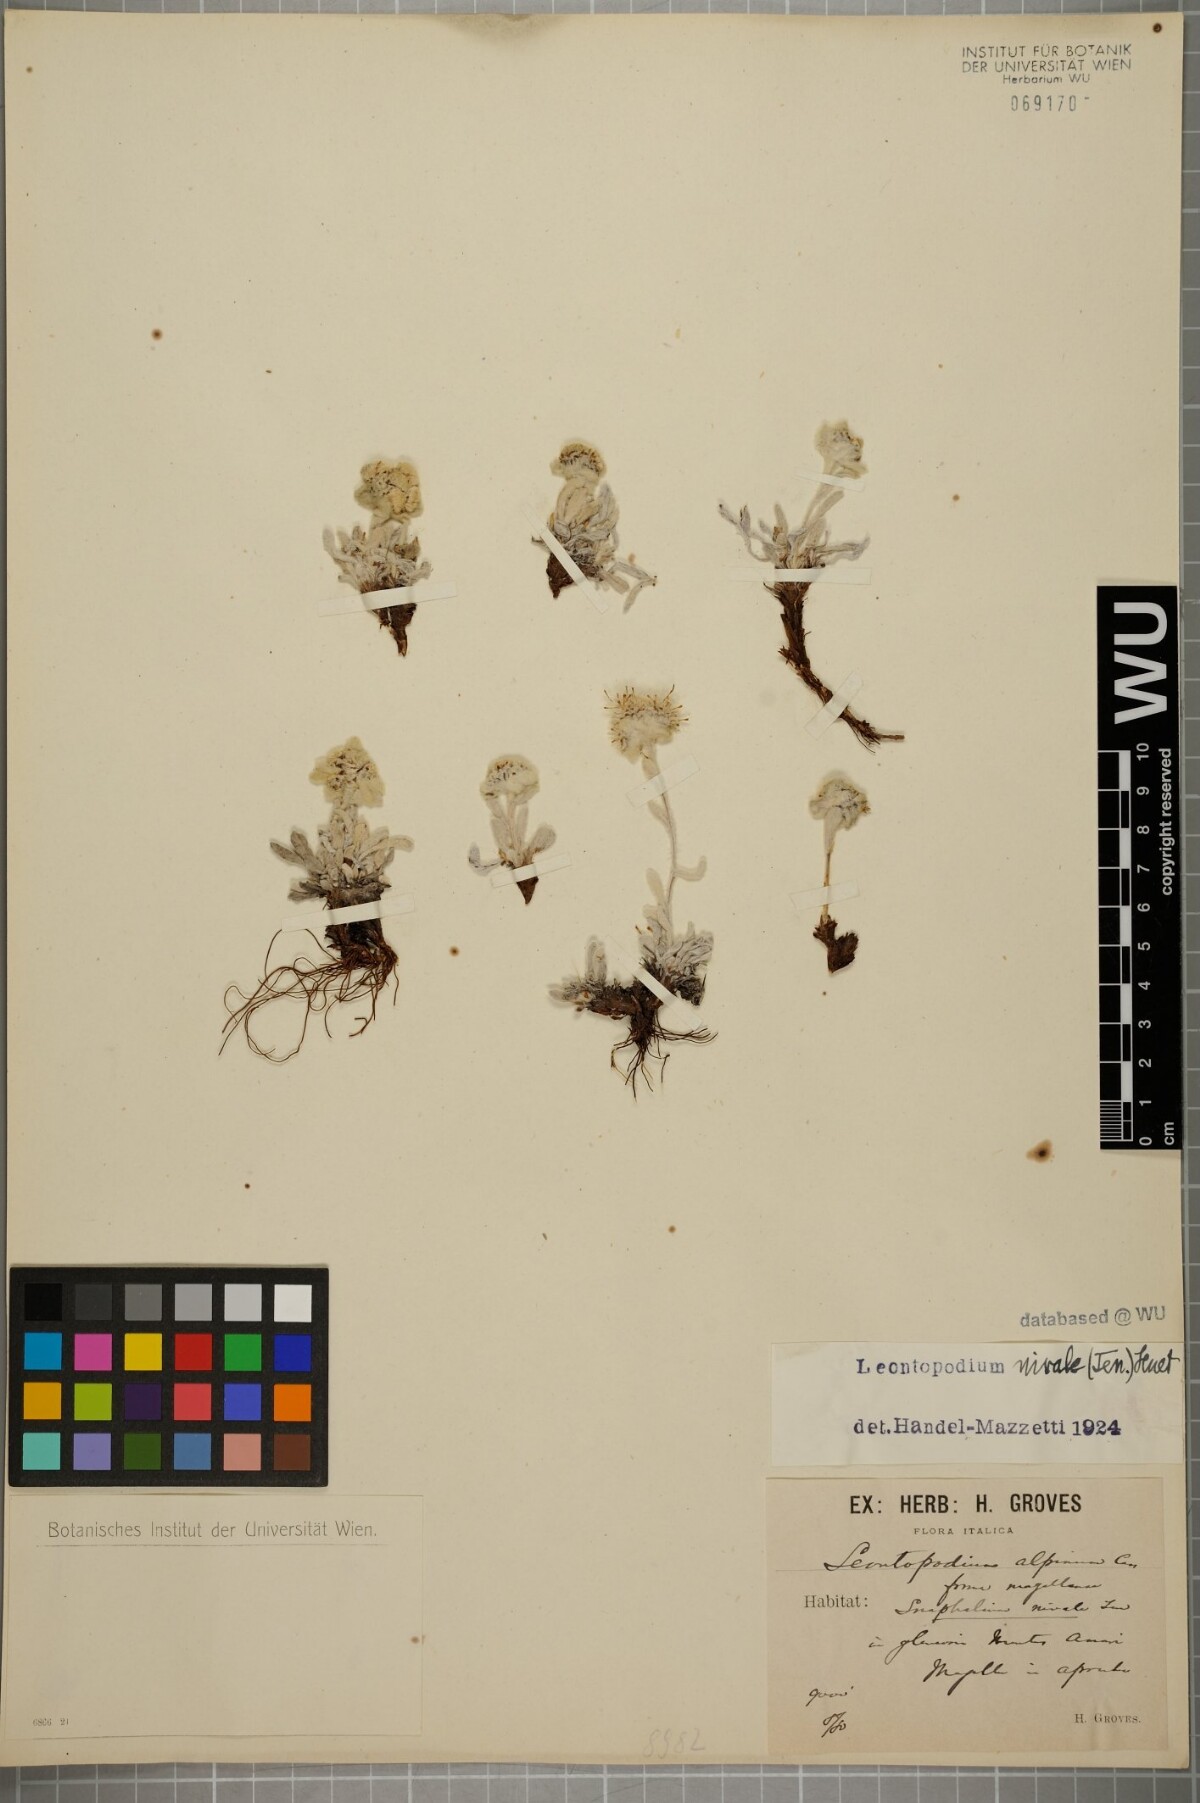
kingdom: Plantae
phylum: Tracheophyta
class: Magnoliopsida
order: Asterales
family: Asteraceae
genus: Leontopodium
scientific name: Leontopodium nivale
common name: Edelweiss
